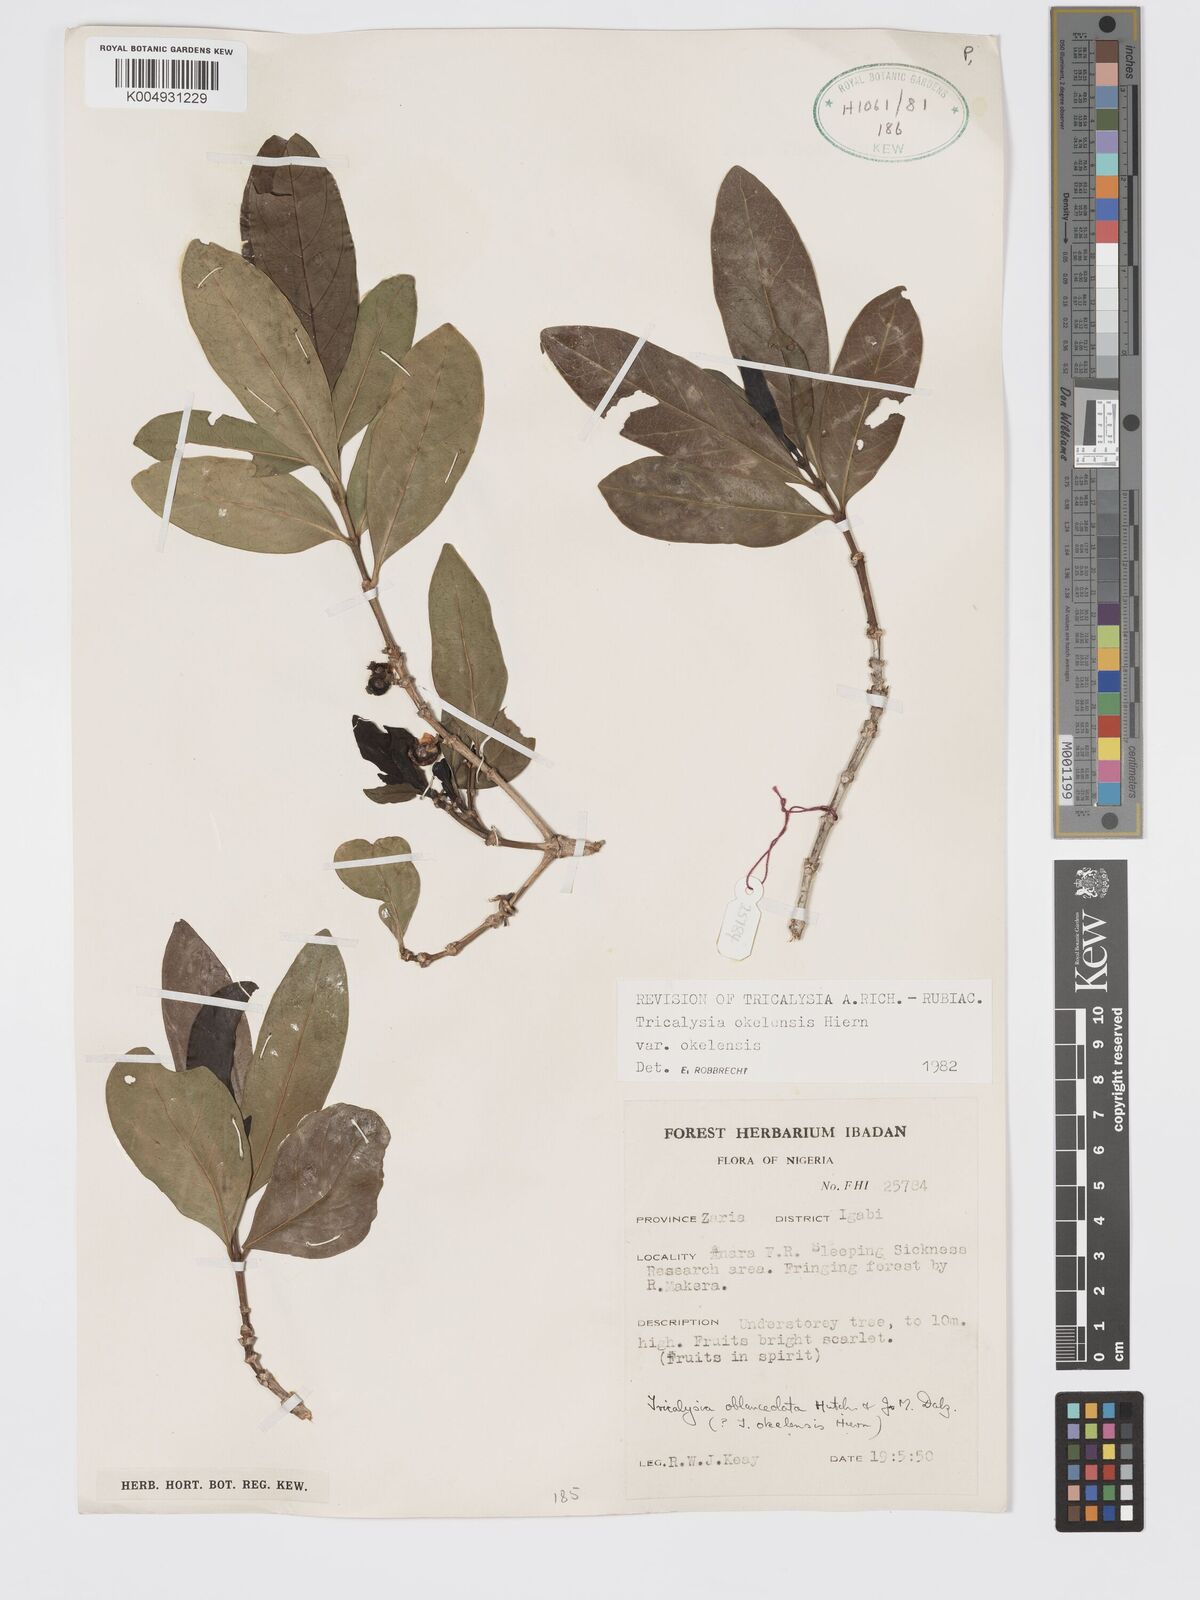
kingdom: Plantae
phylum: Tracheophyta
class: Magnoliopsida
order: Gentianales
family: Rubiaceae
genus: Tricalysia
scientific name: Tricalysia okelensis
